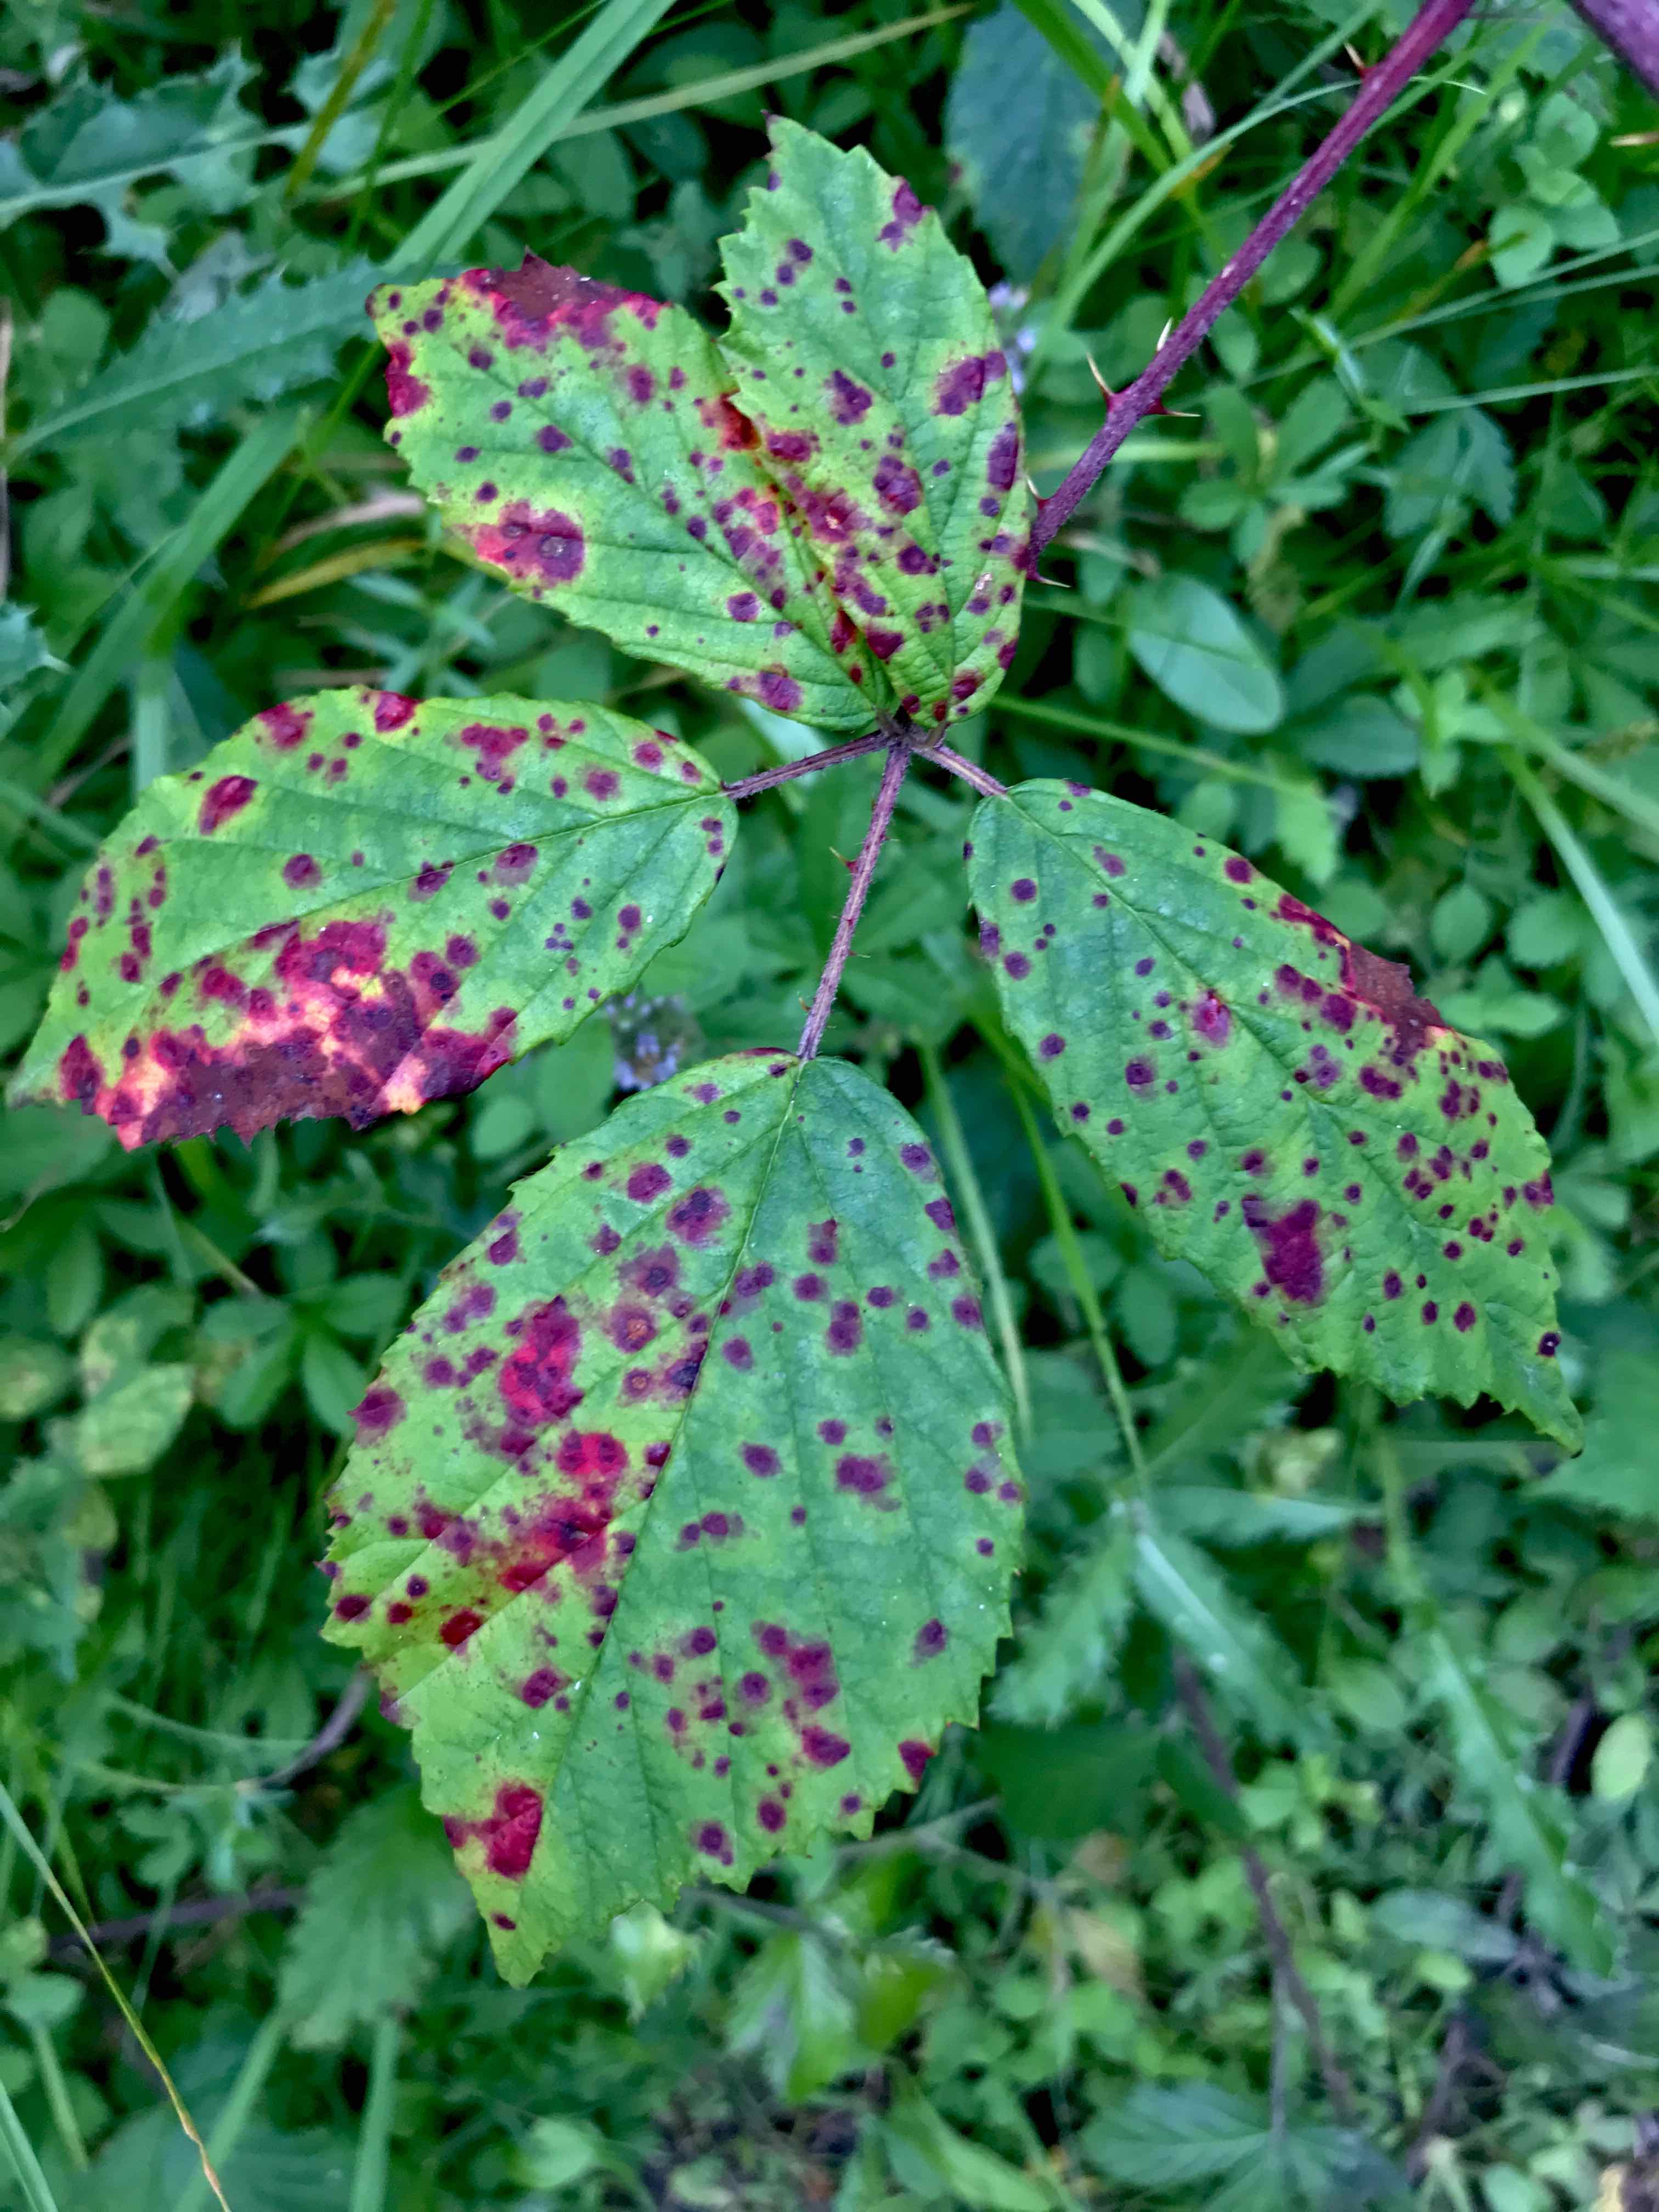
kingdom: Fungi
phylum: Basidiomycota
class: Pucciniomycetes
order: Pucciniales
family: Phragmidiaceae
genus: Phragmidium
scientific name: Phragmidium violaceum
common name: violet flercellerust
